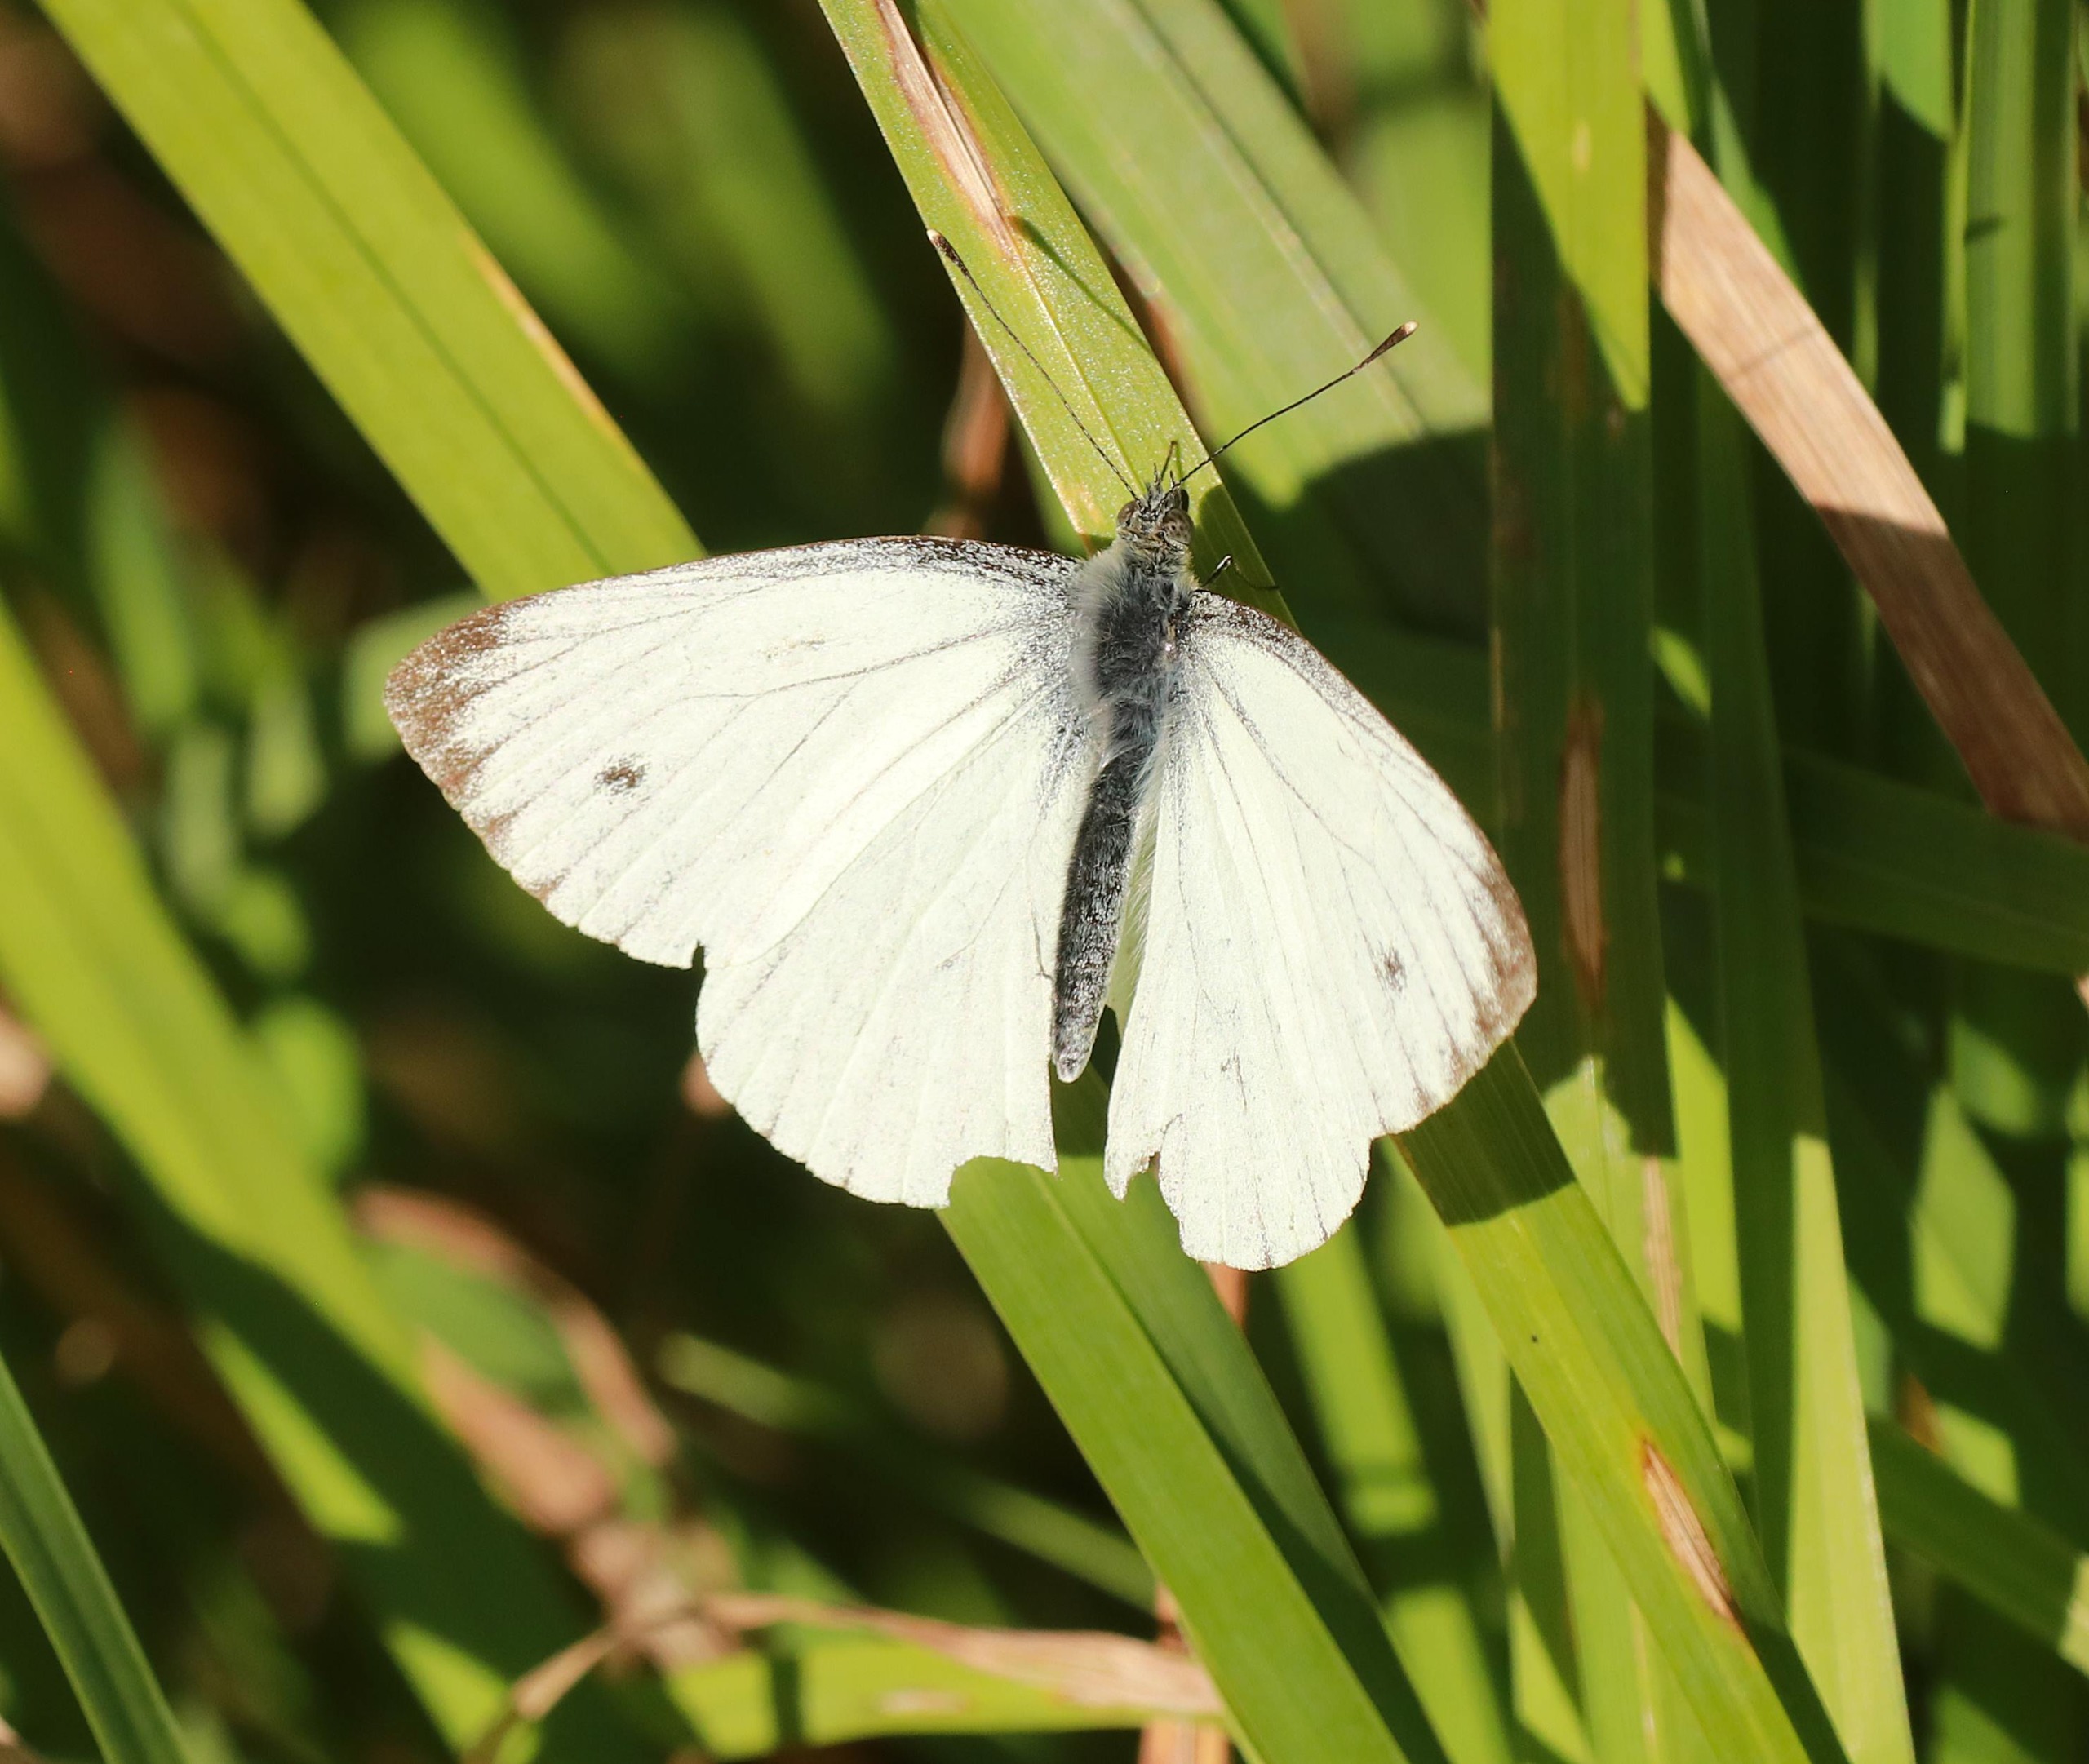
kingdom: Animalia
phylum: Arthropoda
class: Insecta
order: Lepidoptera
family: Pieridae
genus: Pieris
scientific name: Pieris napi
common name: Grønåret kålsommerfugl
